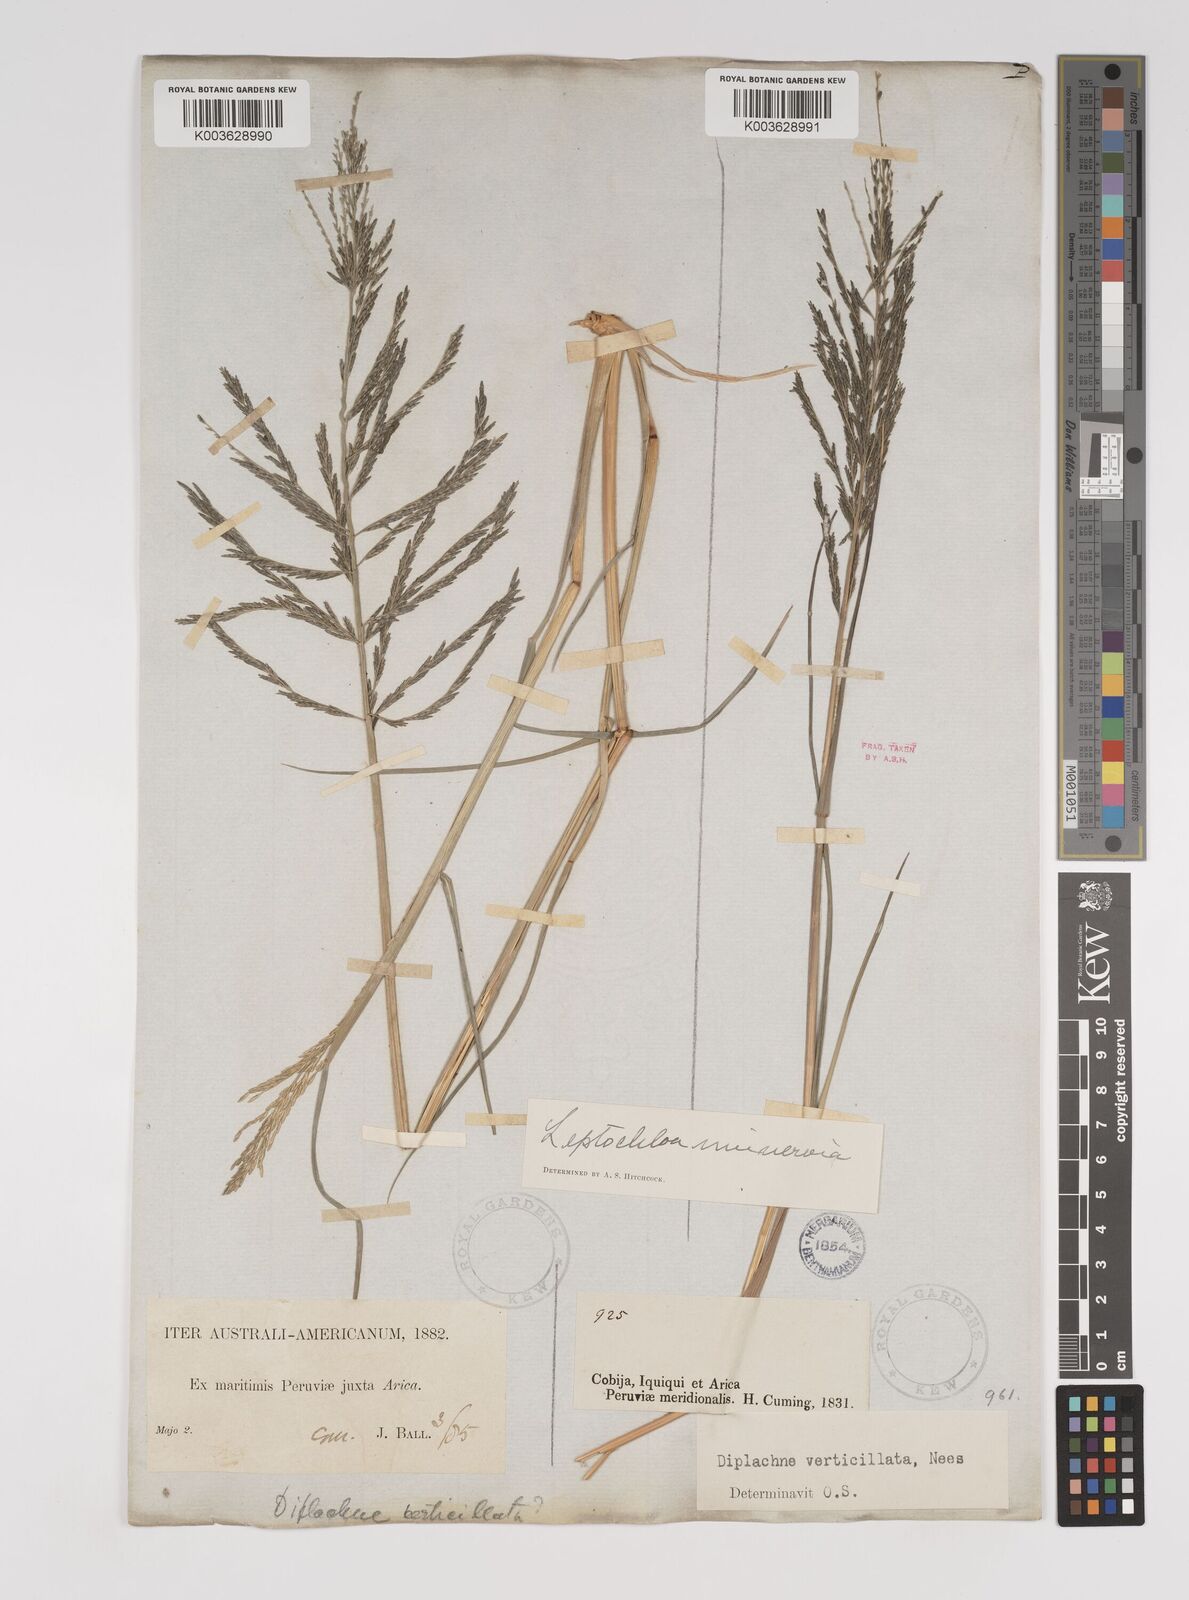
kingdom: Plantae
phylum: Tracheophyta
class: Liliopsida
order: Poales
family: Poaceae
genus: Diplachne
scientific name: Diplachne fusca
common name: Brown beetle grass
